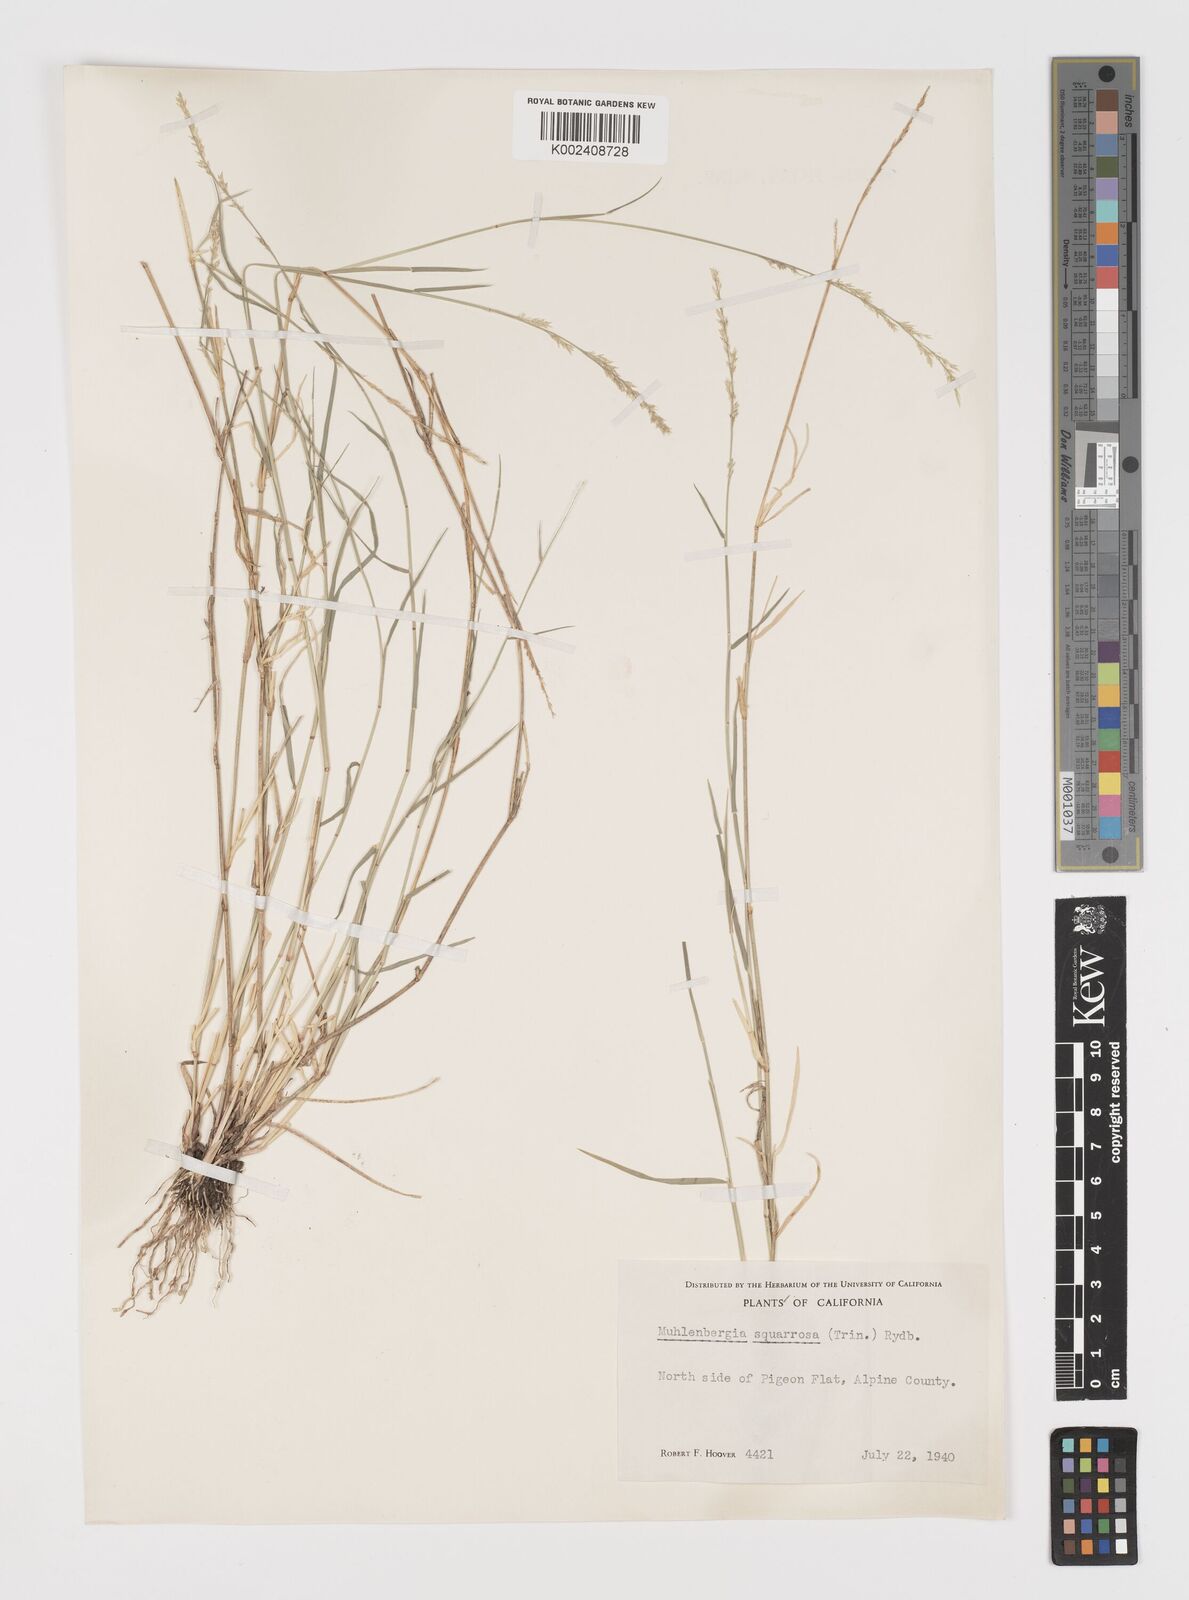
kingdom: Plantae
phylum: Tracheophyta
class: Liliopsida
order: Poales
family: Poaceae
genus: Muhlenbergia
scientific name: Muhlenbergia richardsonis
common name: Mat muhly
